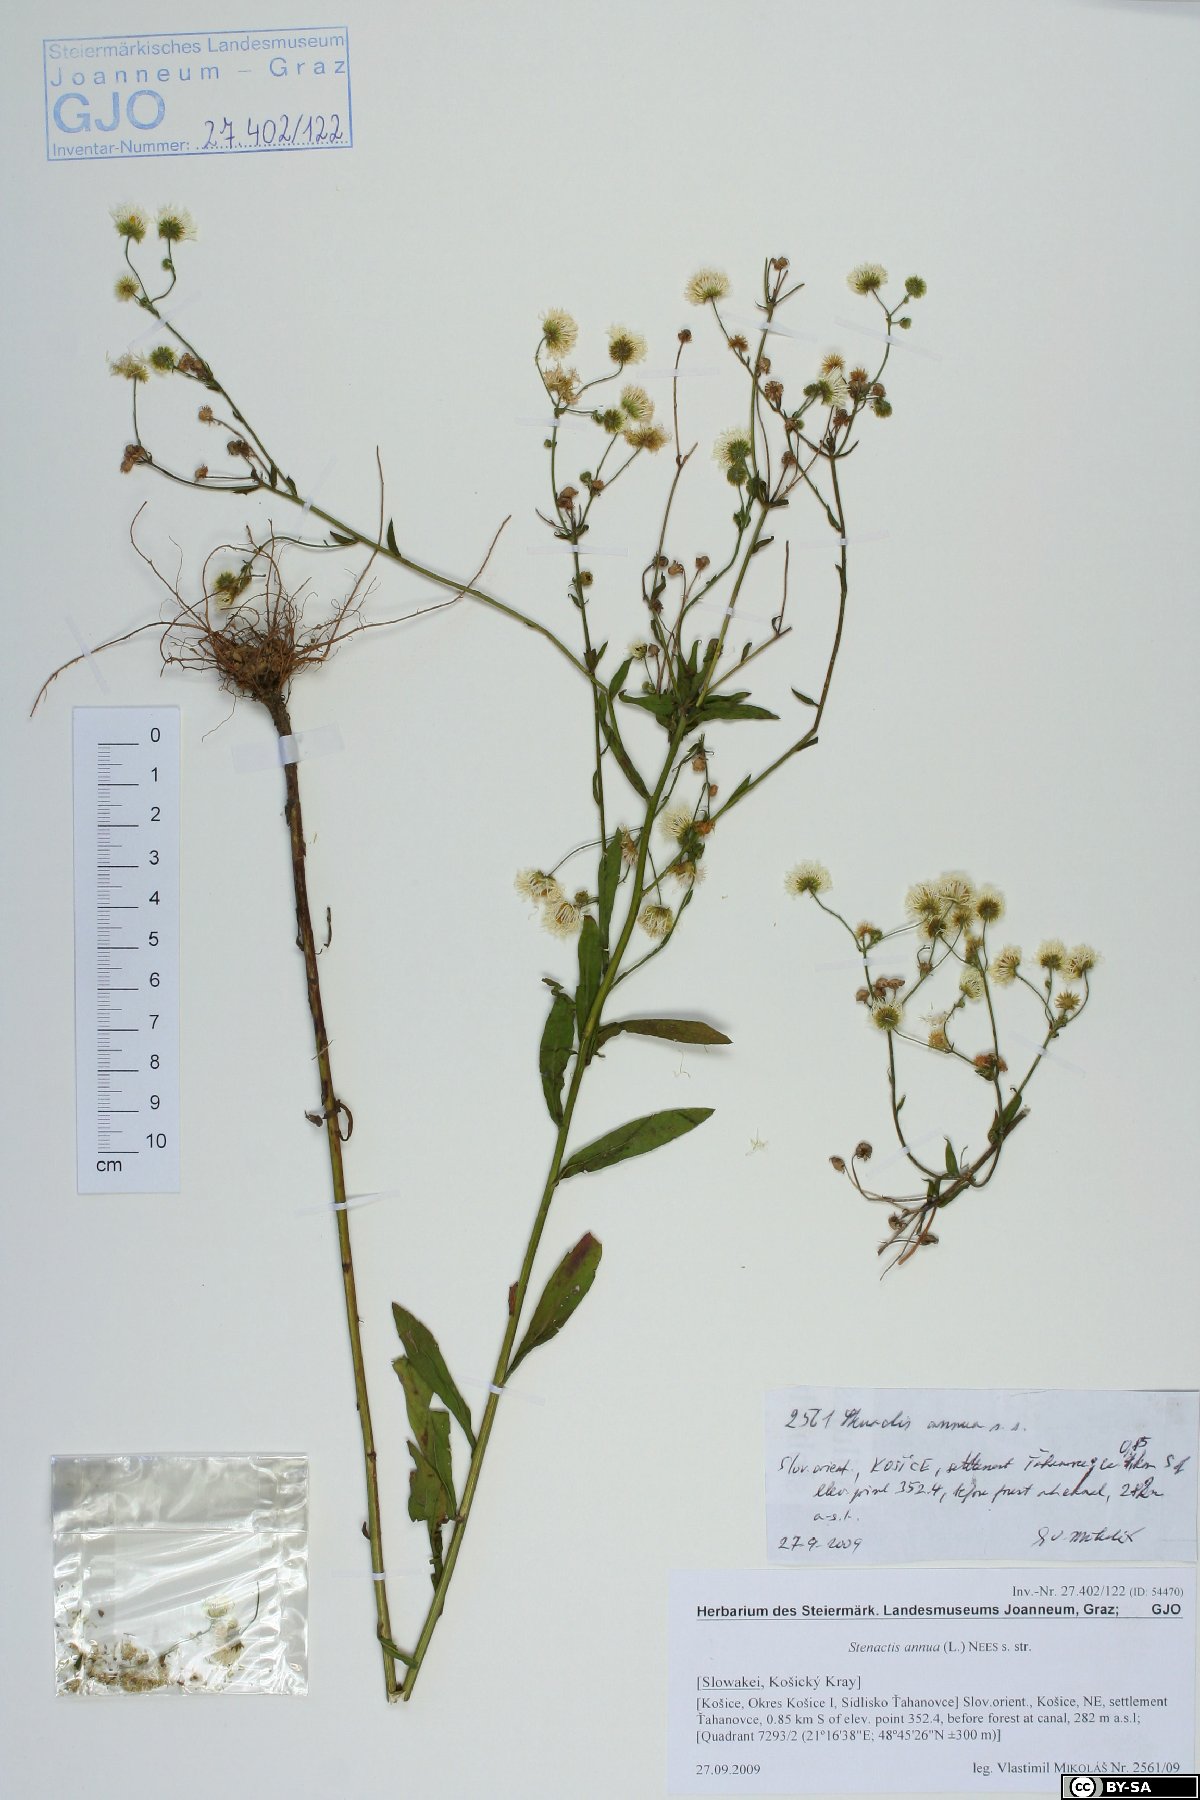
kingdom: Plantae
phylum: Tracheophyta
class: Magnoliopsida
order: Asterales
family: Asteraceae
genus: Erigeron
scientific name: Erigeron annuus
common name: Tall fleabane
